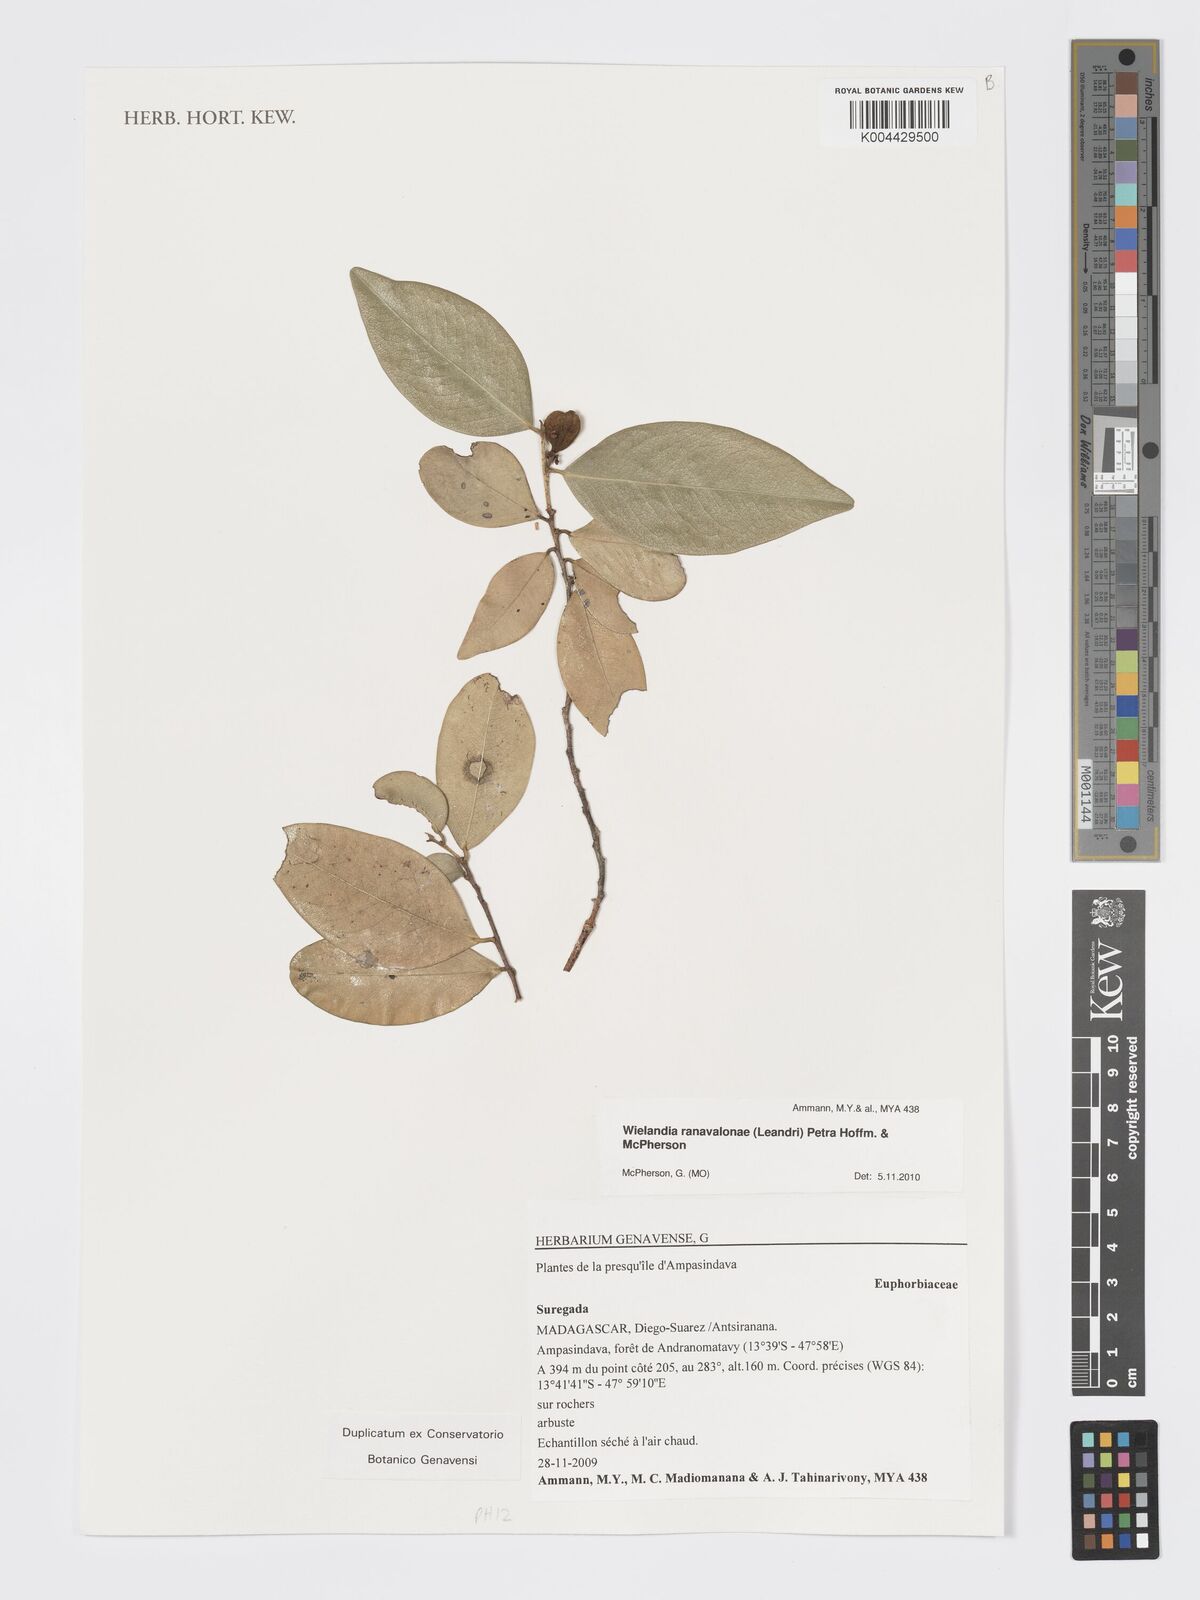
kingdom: Plantae
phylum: Tracheophyta
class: Magnoliopsida
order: Malpighiales
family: Phyllanthaceae
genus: Wielandia
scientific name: Wielandia ranavalonae
